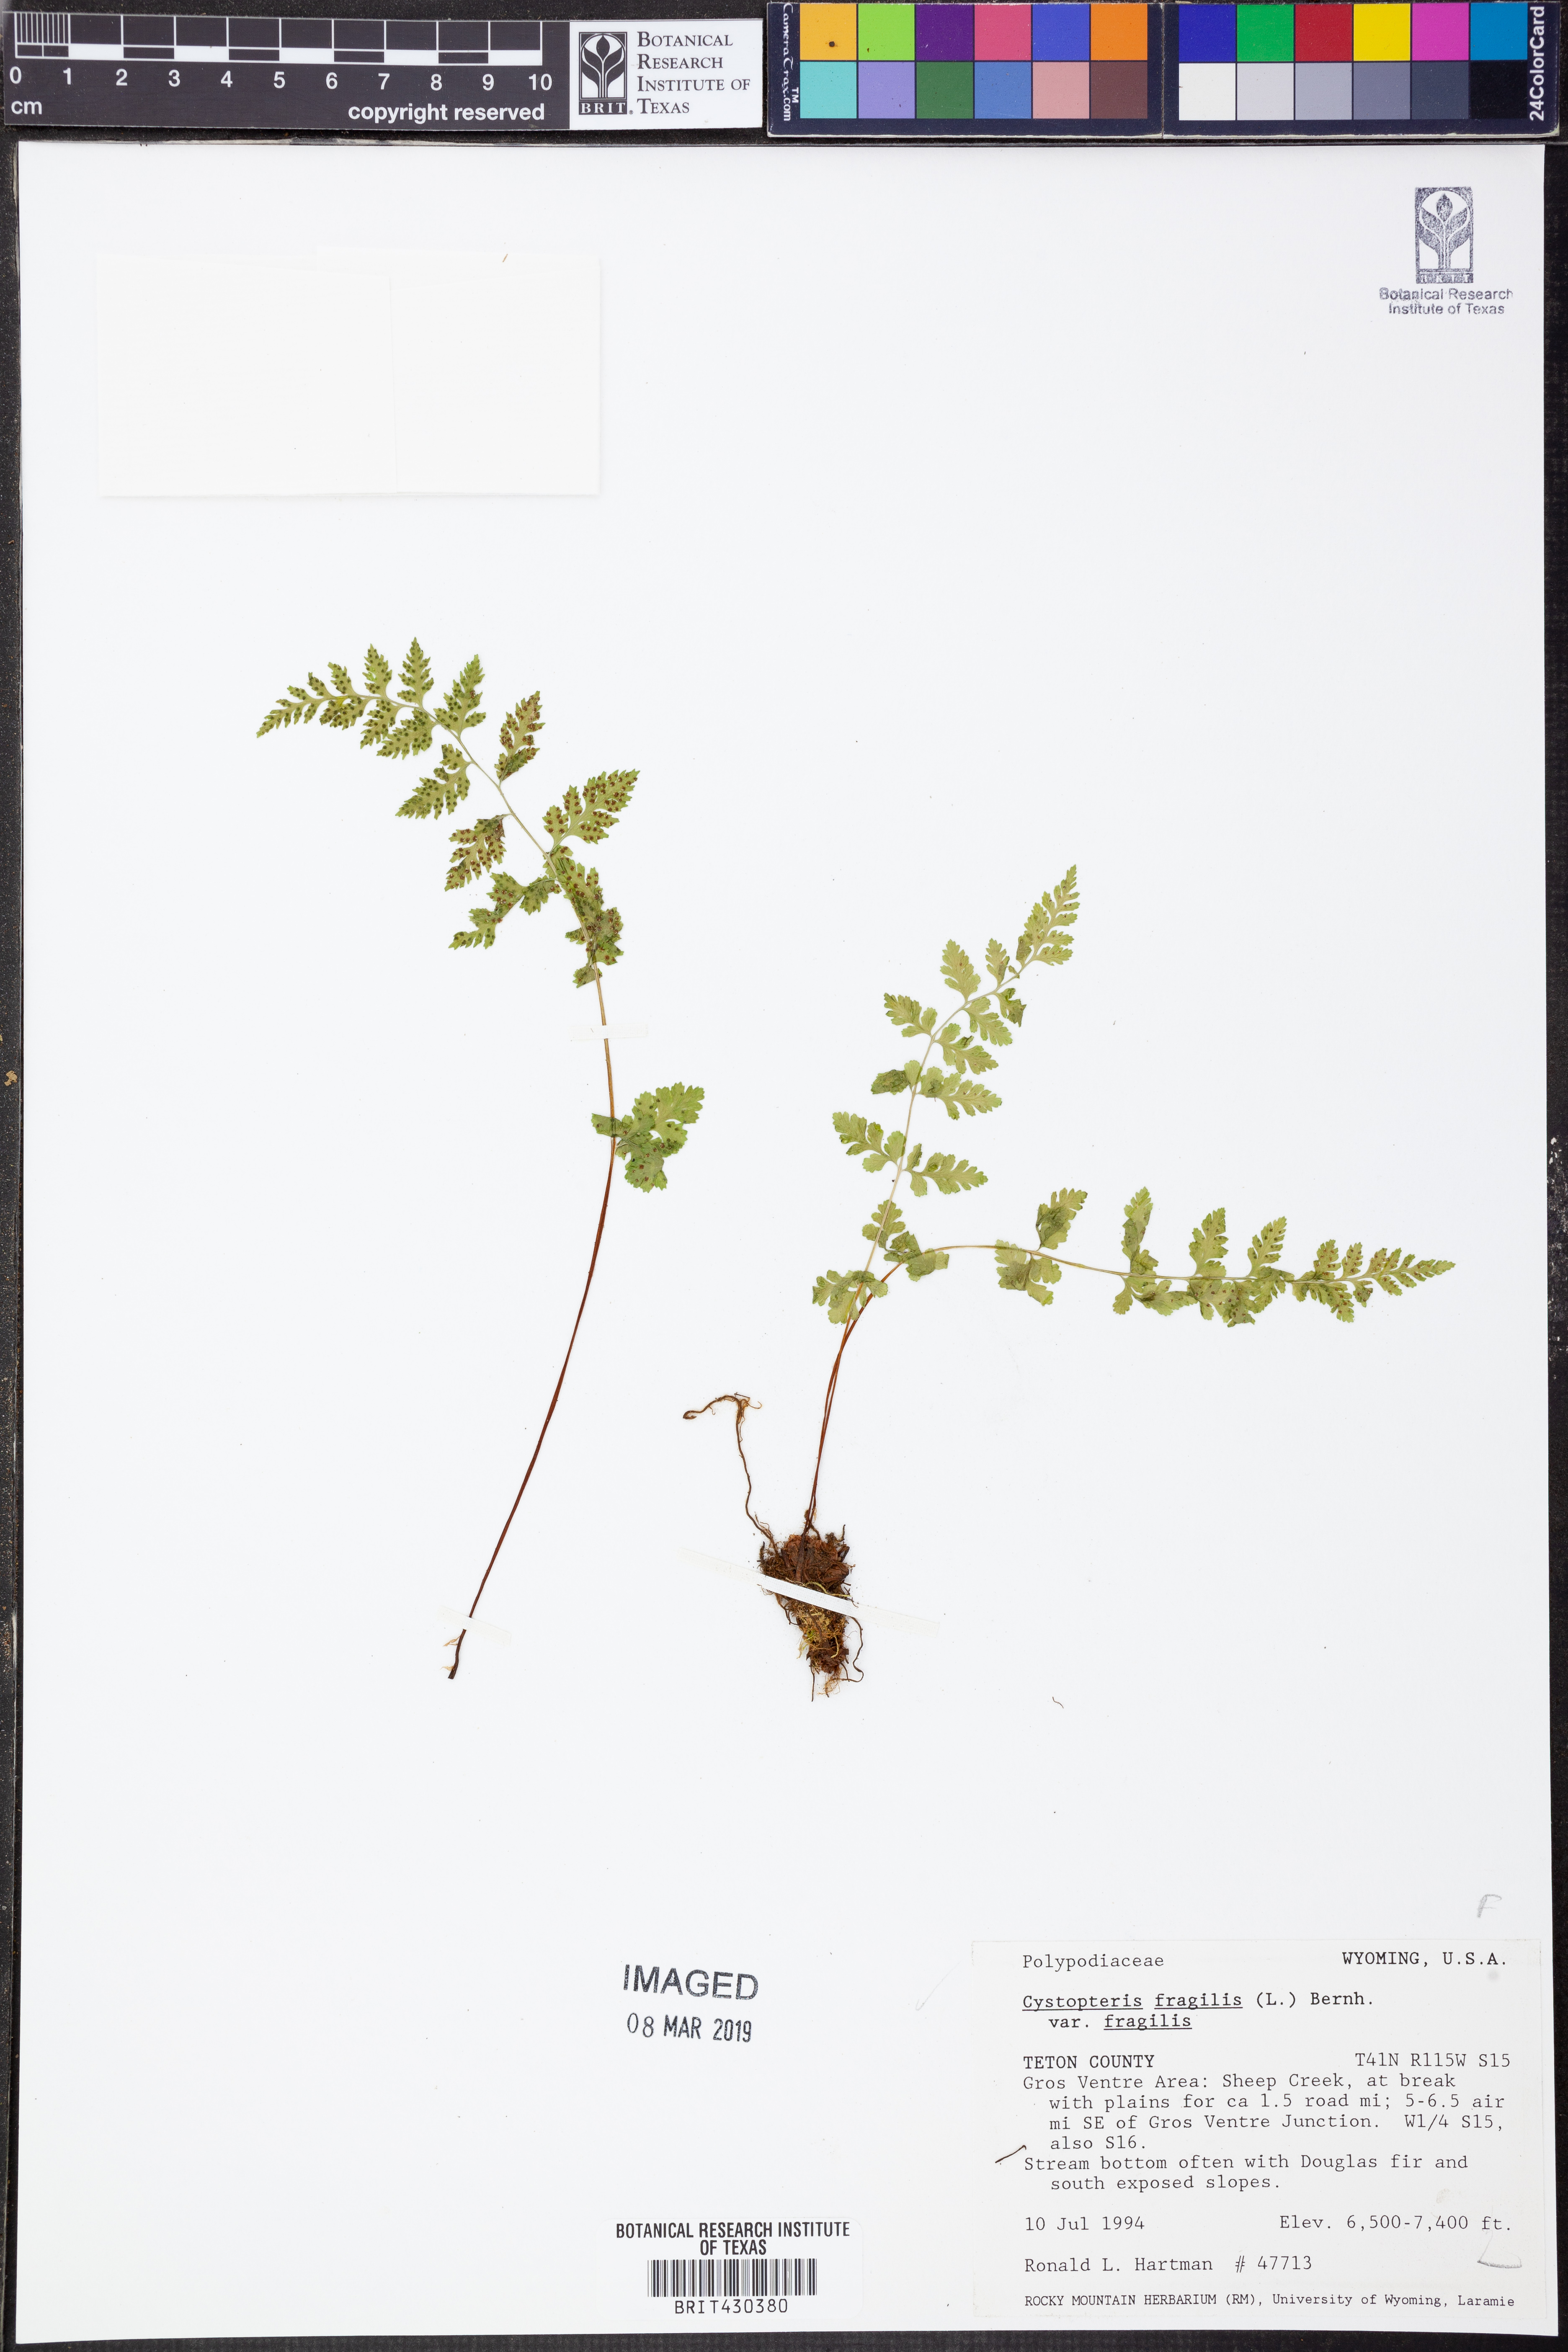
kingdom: Plantae
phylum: Tracheophyta
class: Polypodiopsida
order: Polypodiales
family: Cystopteridaceae
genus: Cystopteris
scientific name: Cystopteris fragilis
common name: Brittle bladder fern
